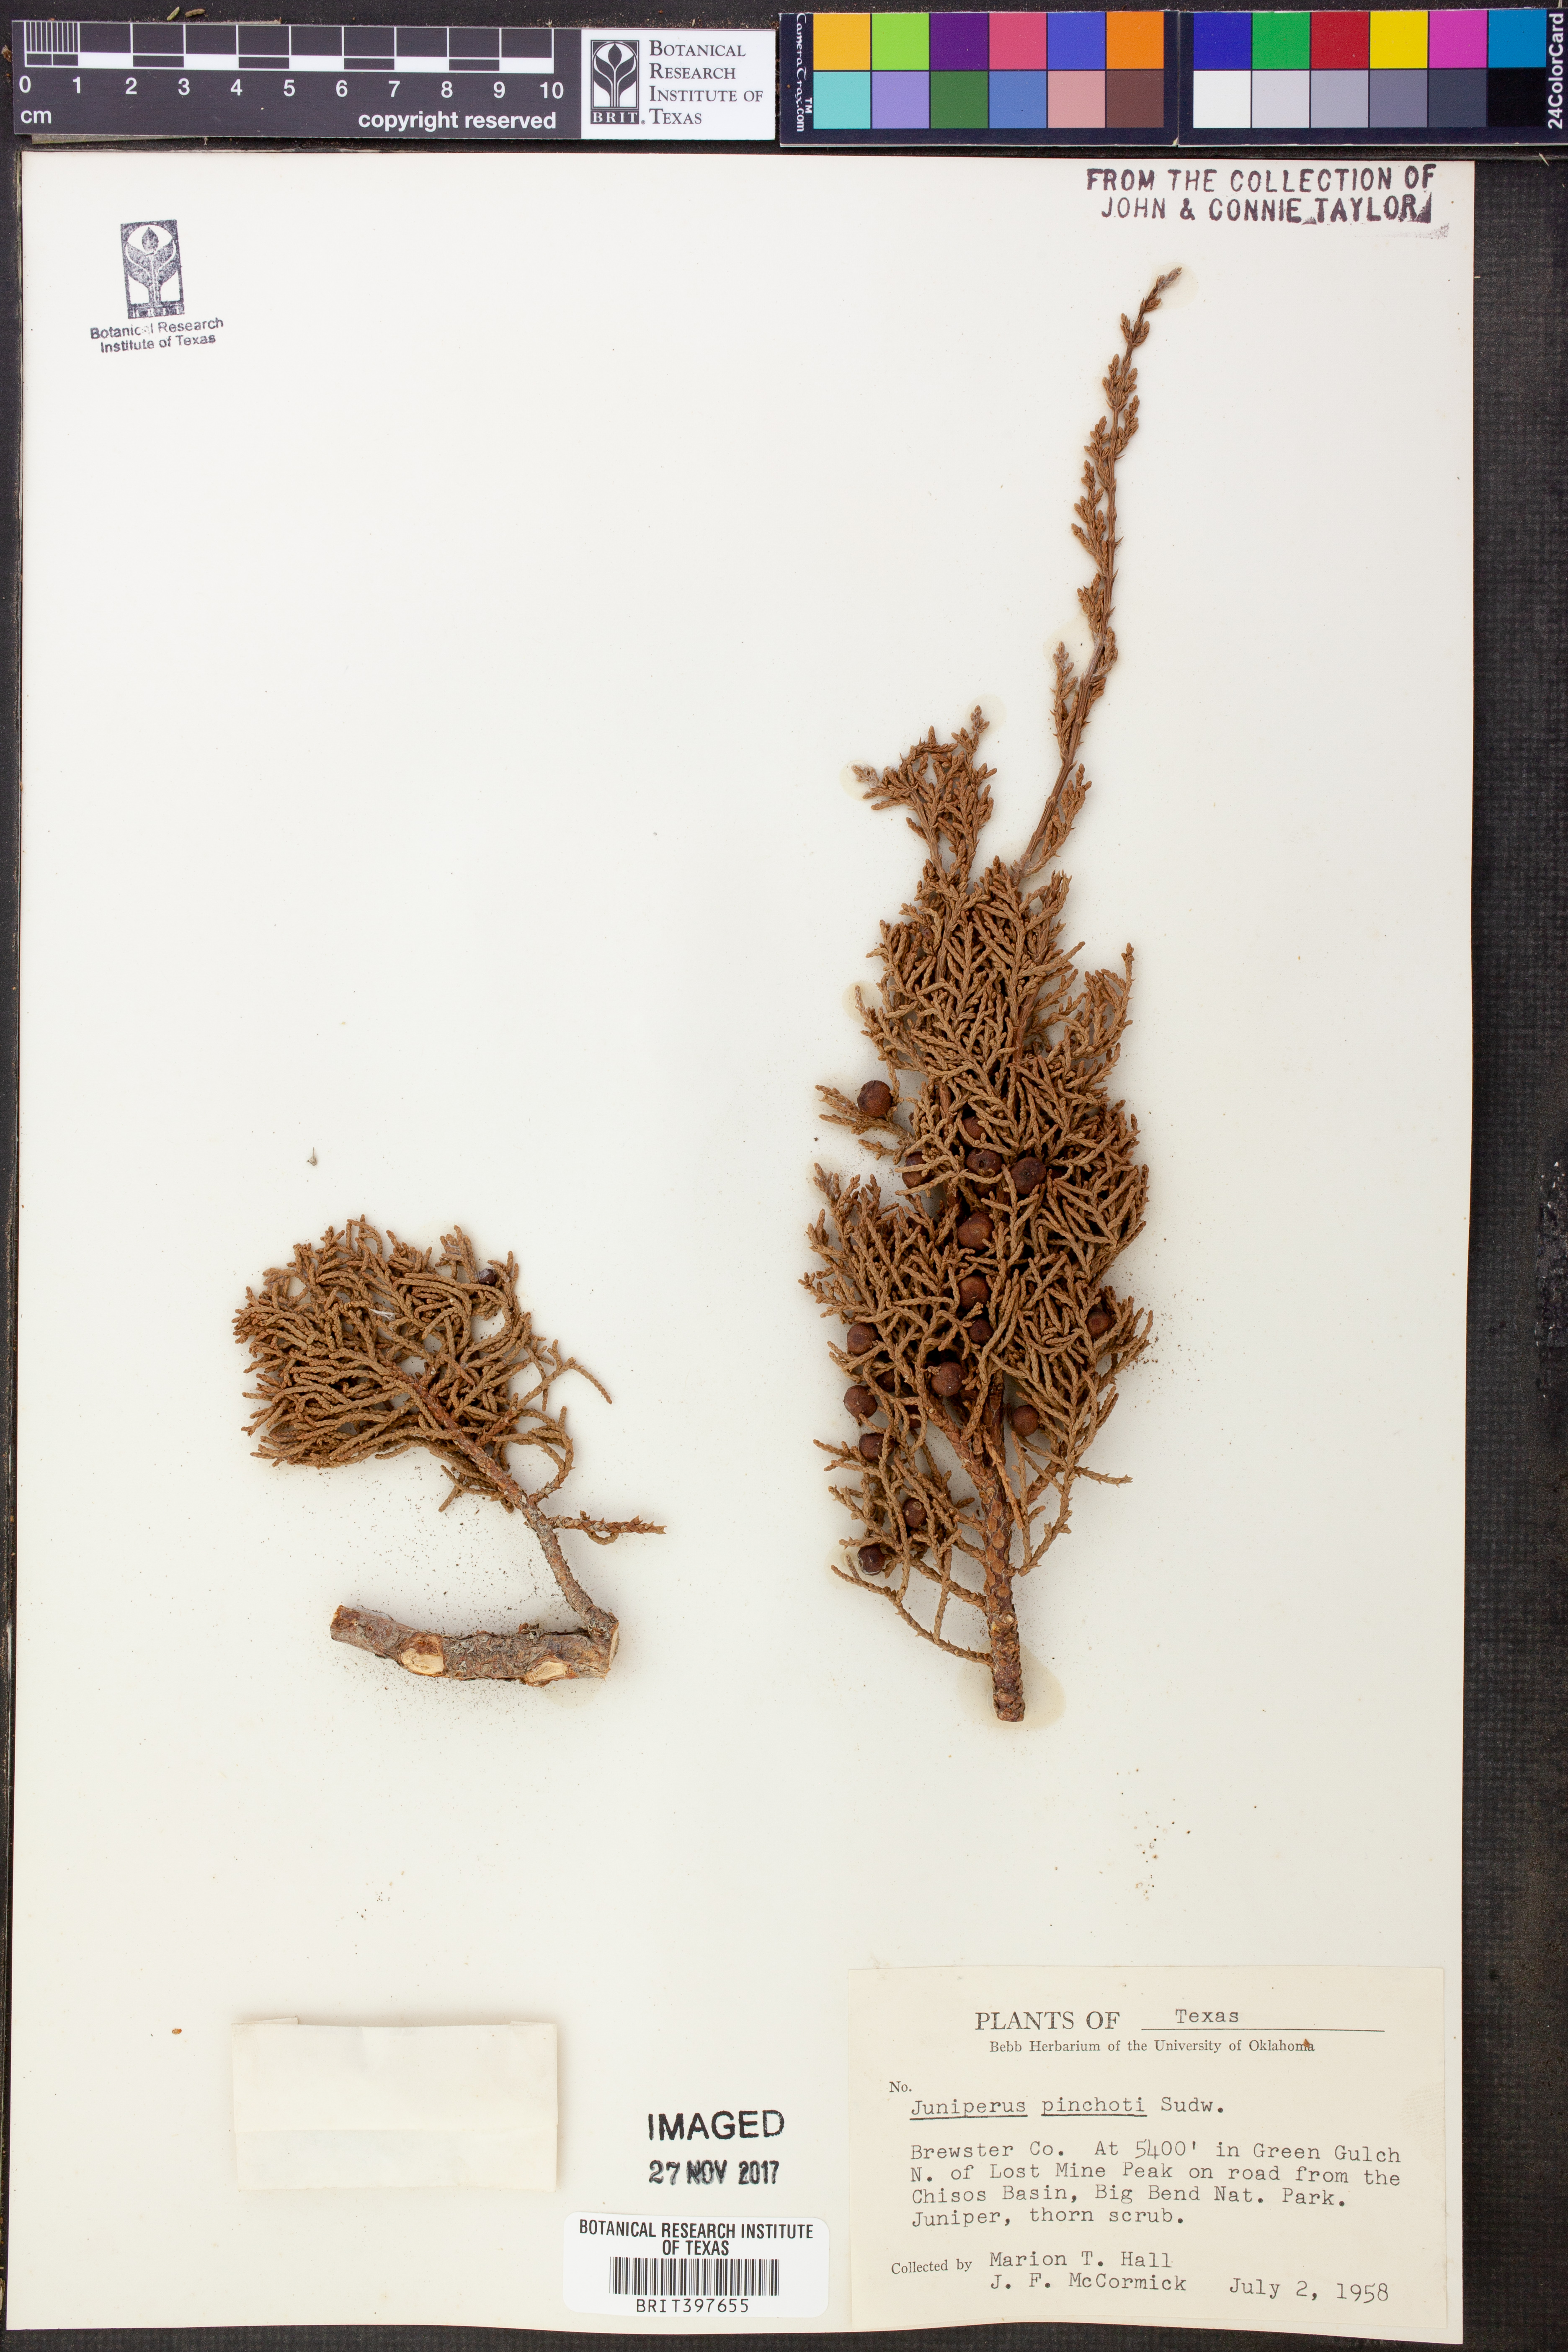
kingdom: Plantae
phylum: Tracheophyta
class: Pinopsida
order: Pinales
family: Cupressaceae
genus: Juniperus
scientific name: Juniperus pinchotii
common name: Pinchot juniper
